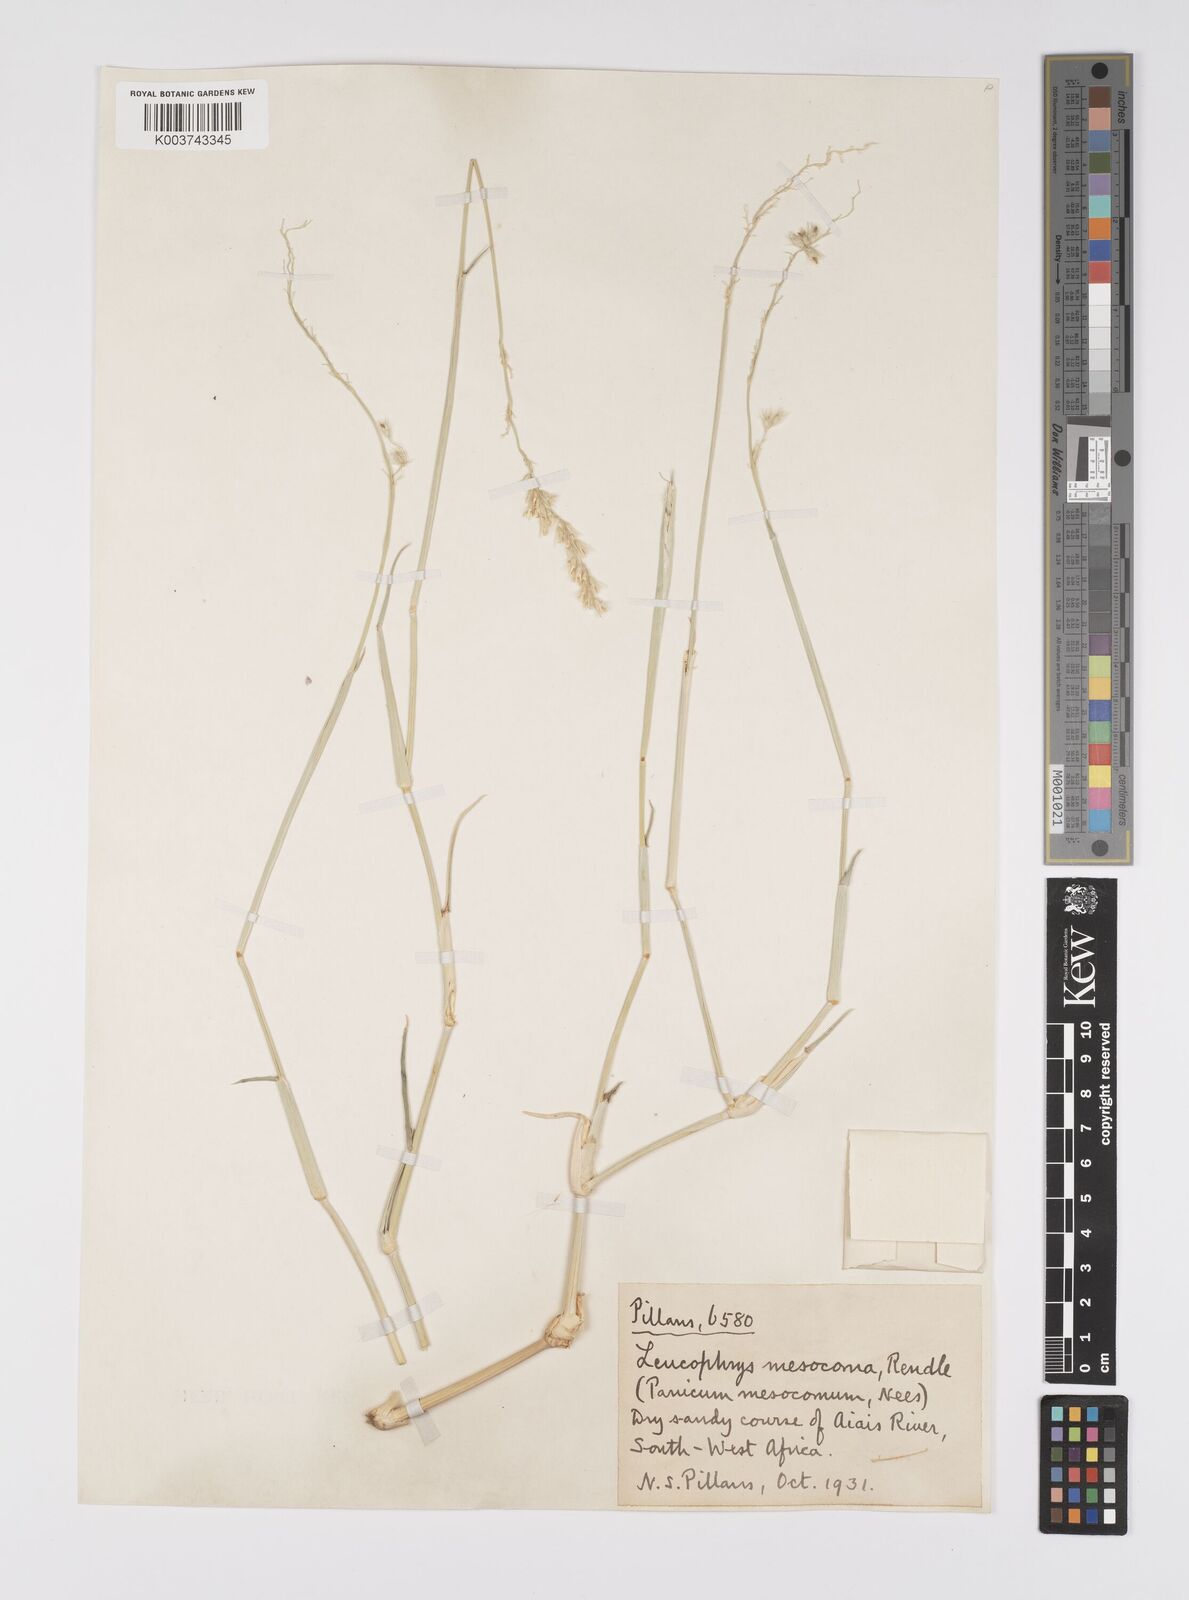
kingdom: Plantae
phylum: Tracheophyta
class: Liliopsida
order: Poales
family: Poaceae
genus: Urochloa
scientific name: Urochloa Brachiaria mesocoma
